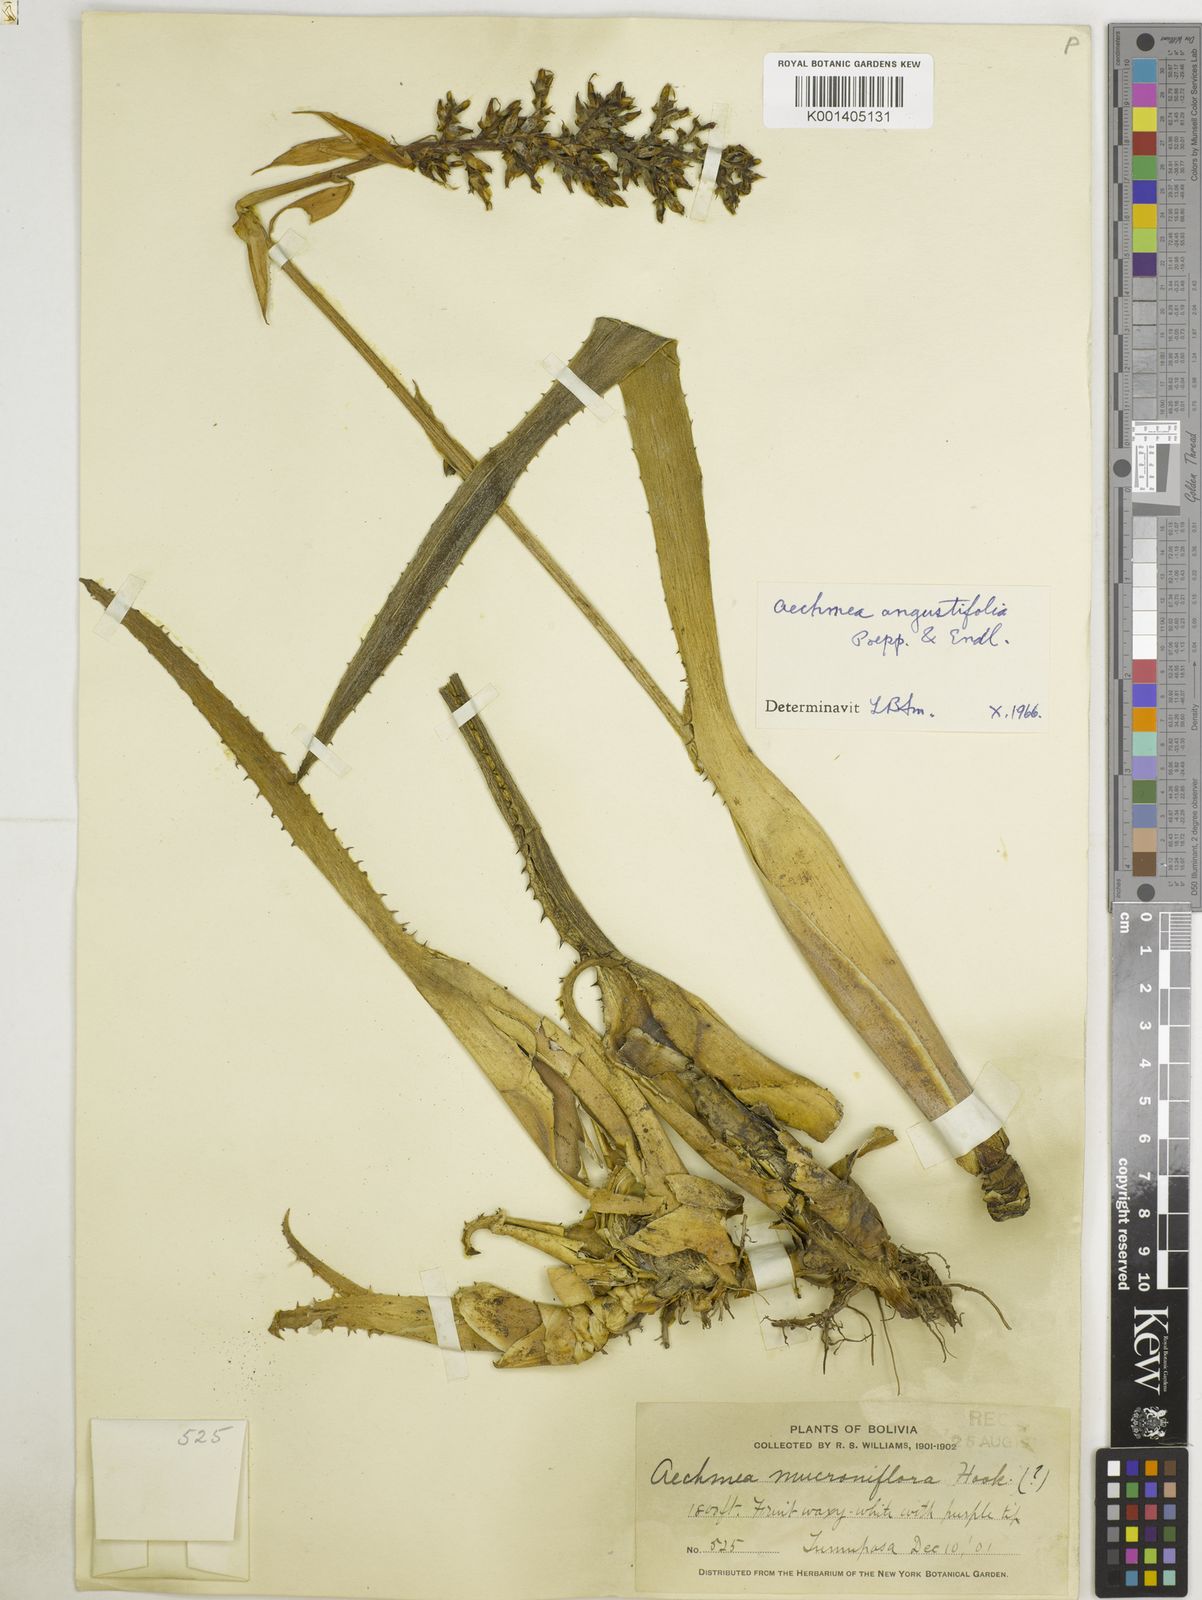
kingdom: Plantae
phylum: Tracheophyta
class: Liliopsida
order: Poales
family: Bromeliaceae
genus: Aechmea
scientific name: Aechmea angustifolia
